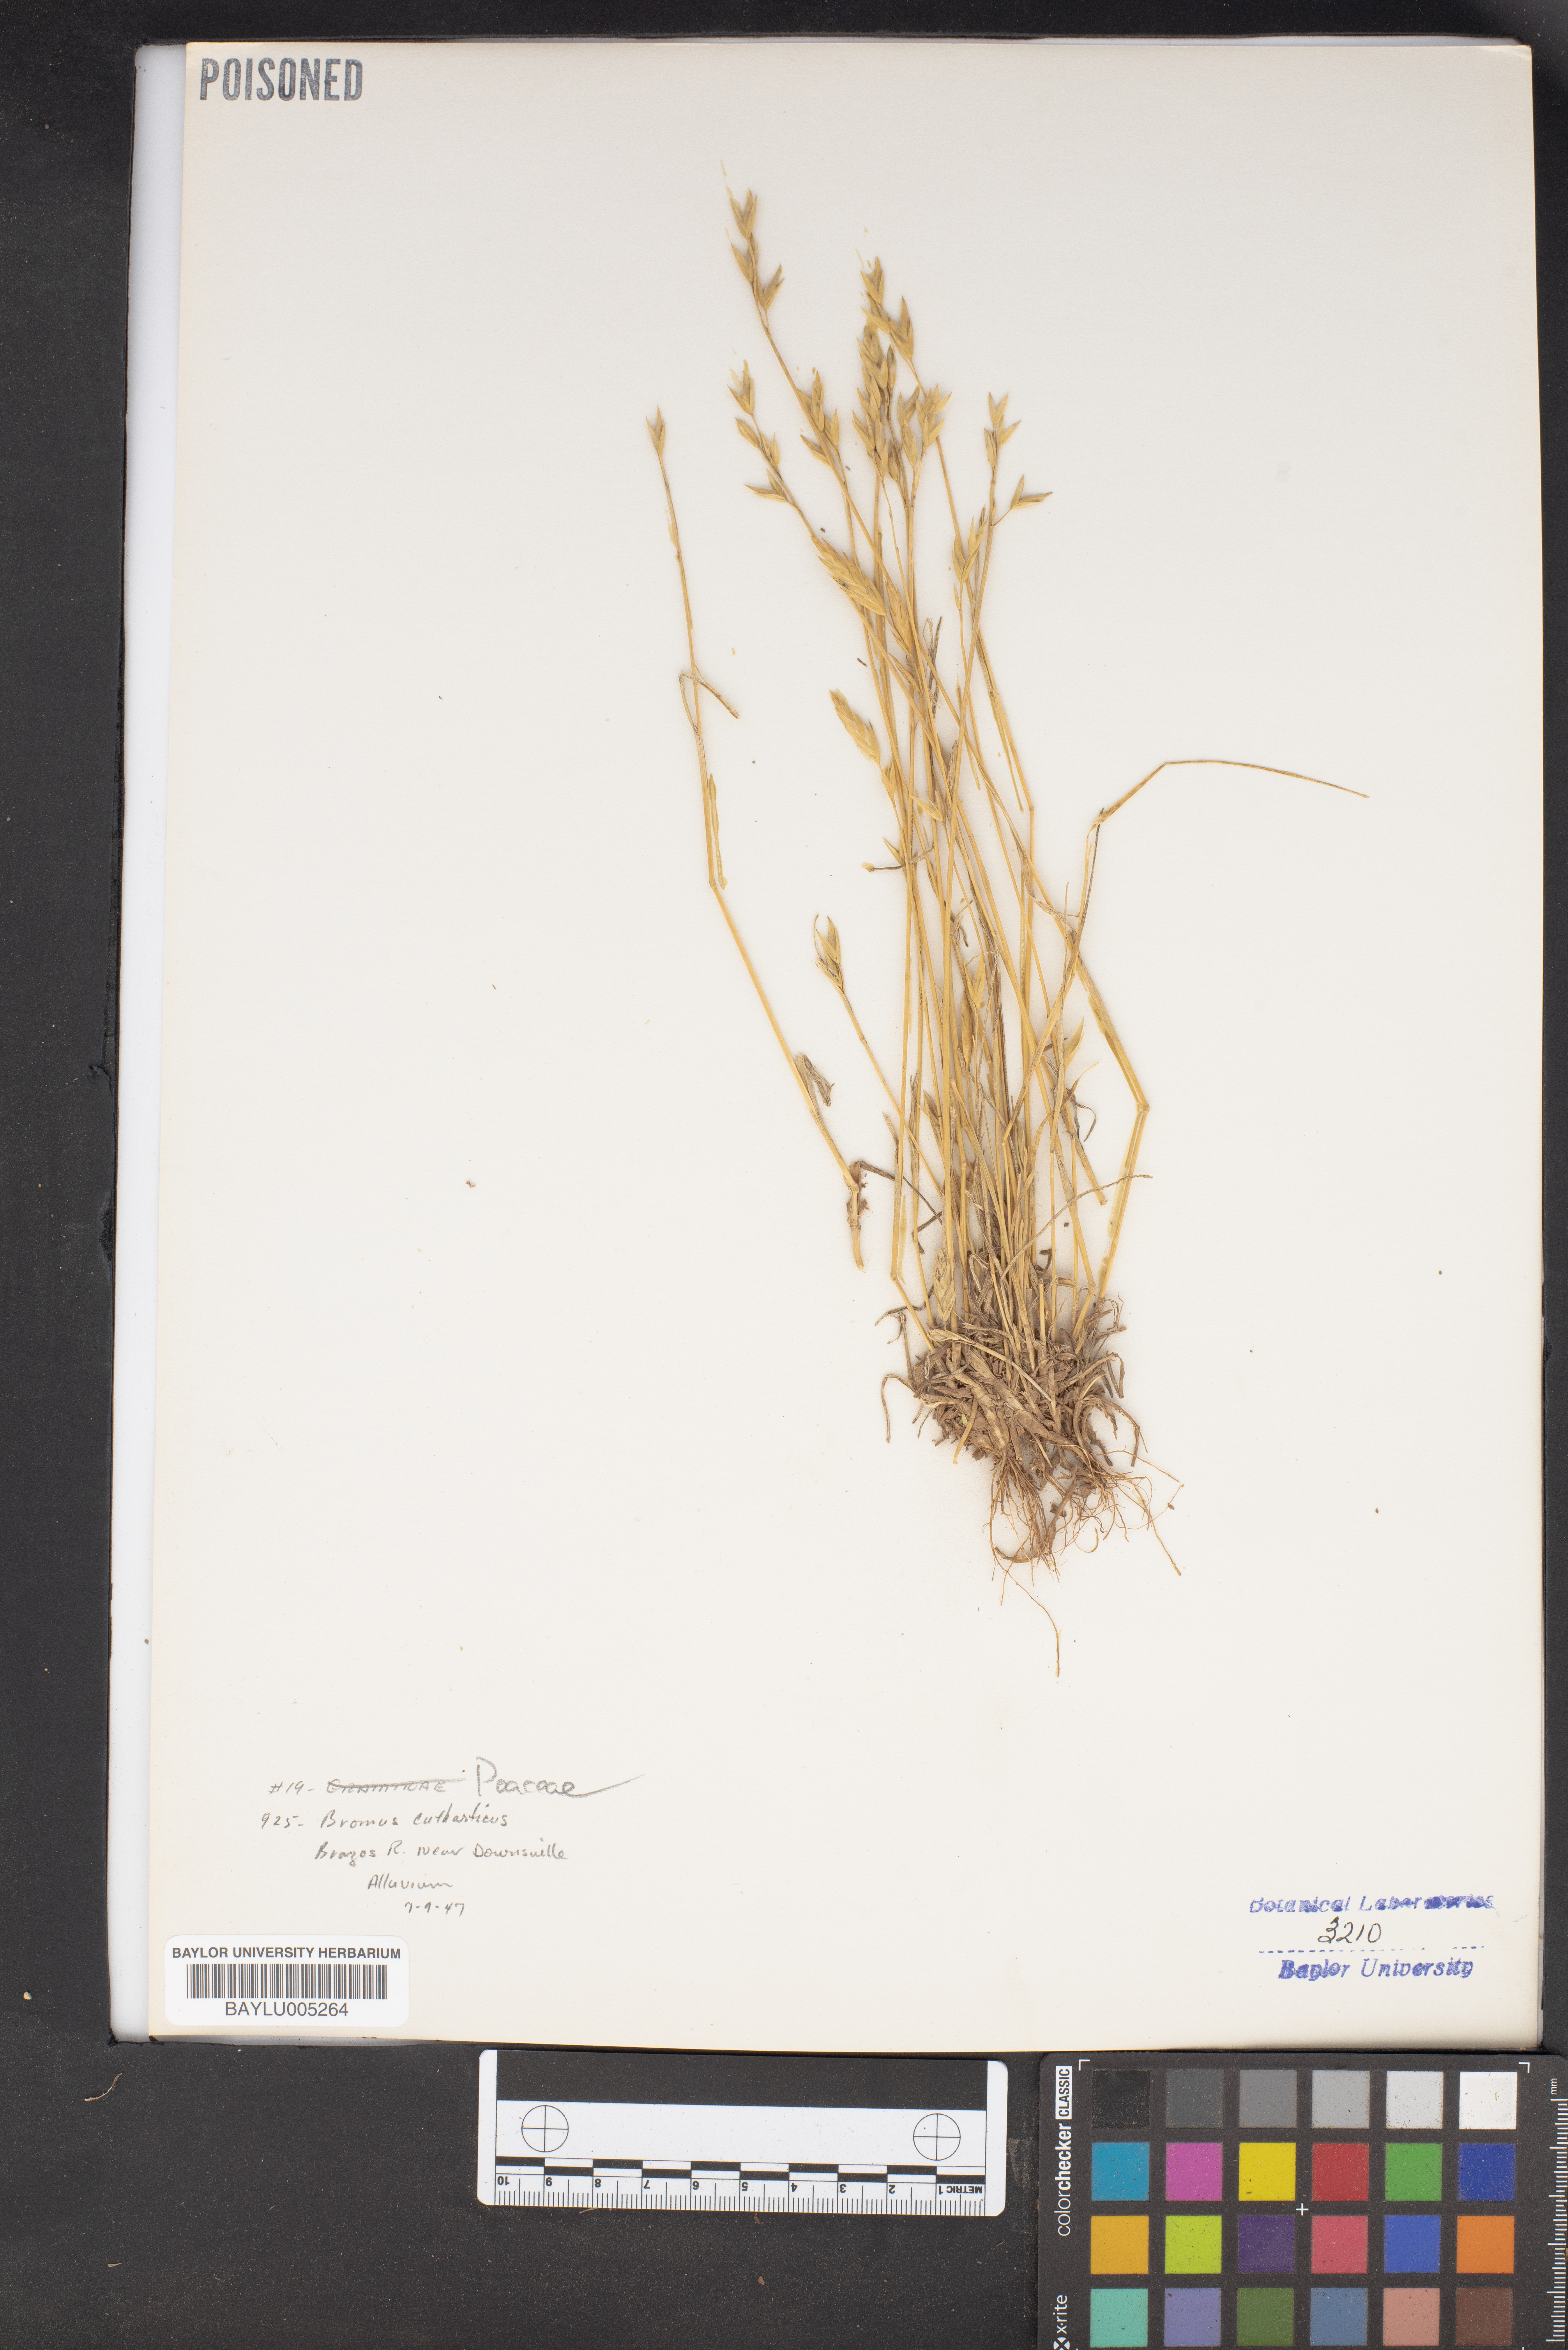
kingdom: Plantae
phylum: Tracheophyta
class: Liliopsida
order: Poales
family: Poaceae
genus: Bromus
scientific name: Bromus catharticus
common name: Rescuegrass
